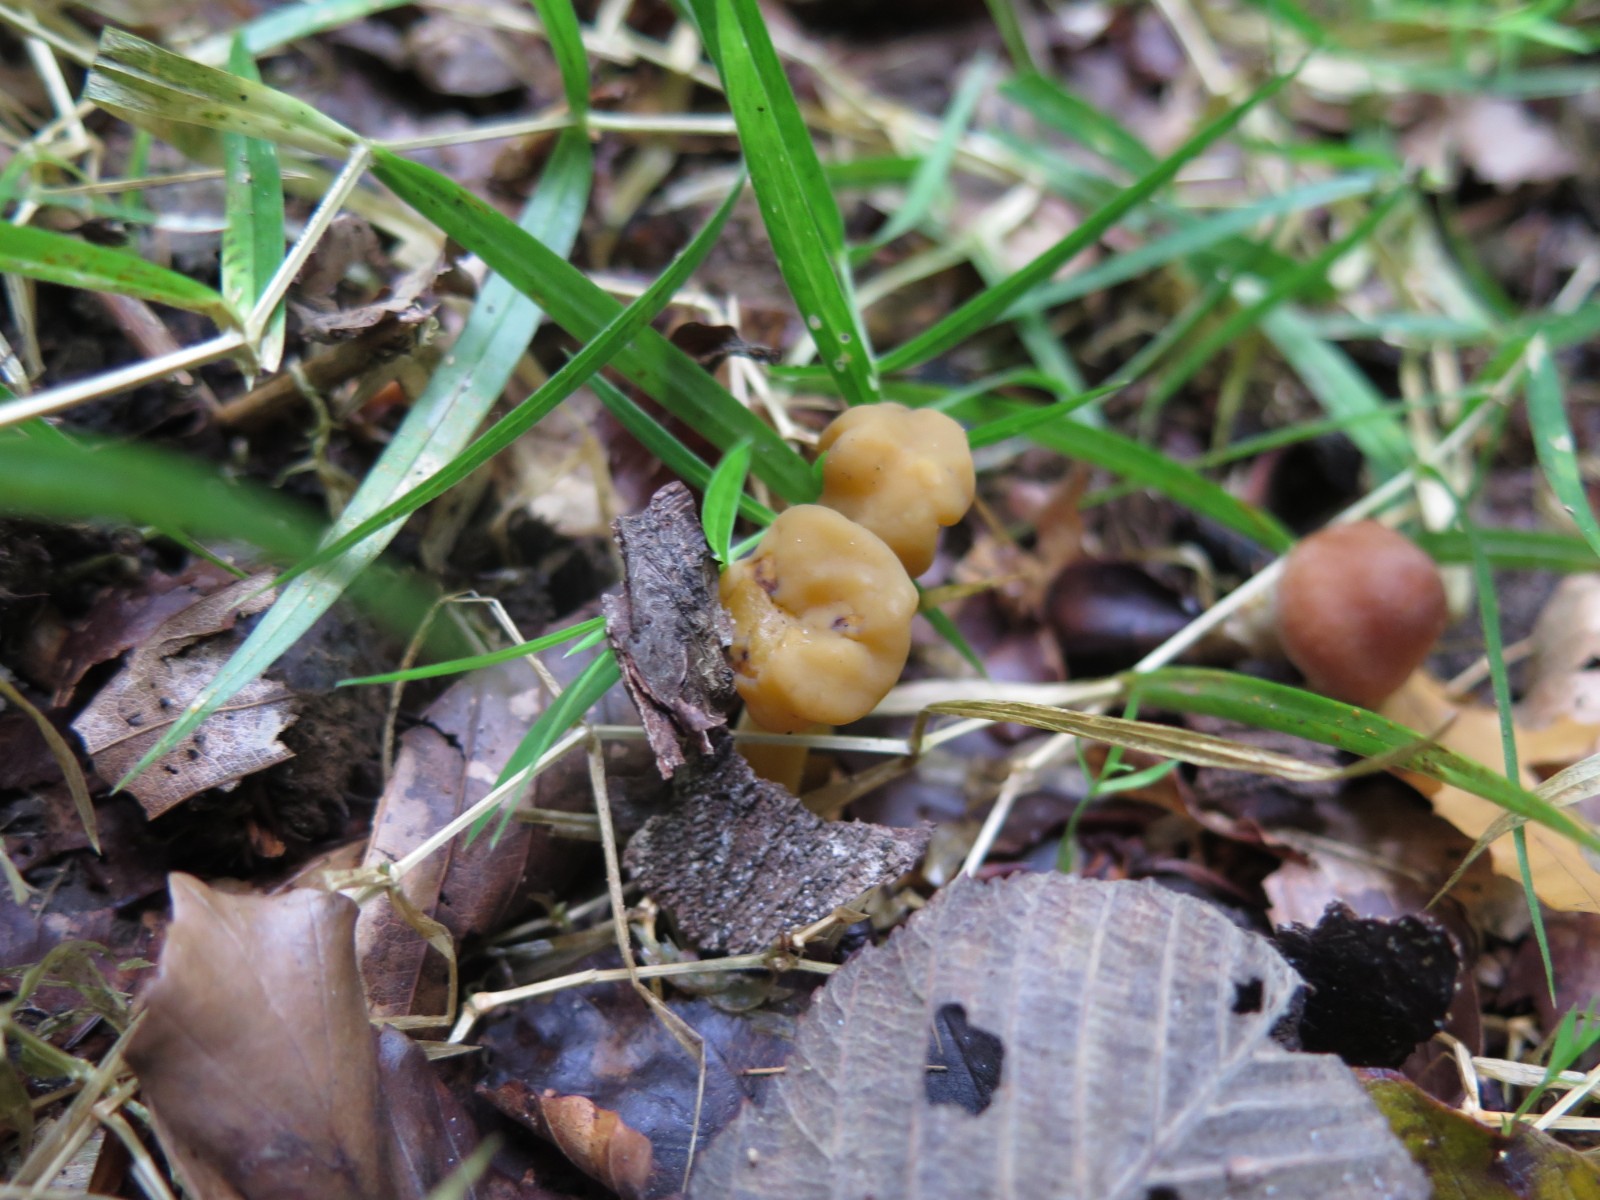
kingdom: Fungi
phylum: Ascomycota
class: Leotiomycetes
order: Leotiales
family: Leotiaceae
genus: Leotia
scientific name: Leotia lubrica
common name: ravsvamp
